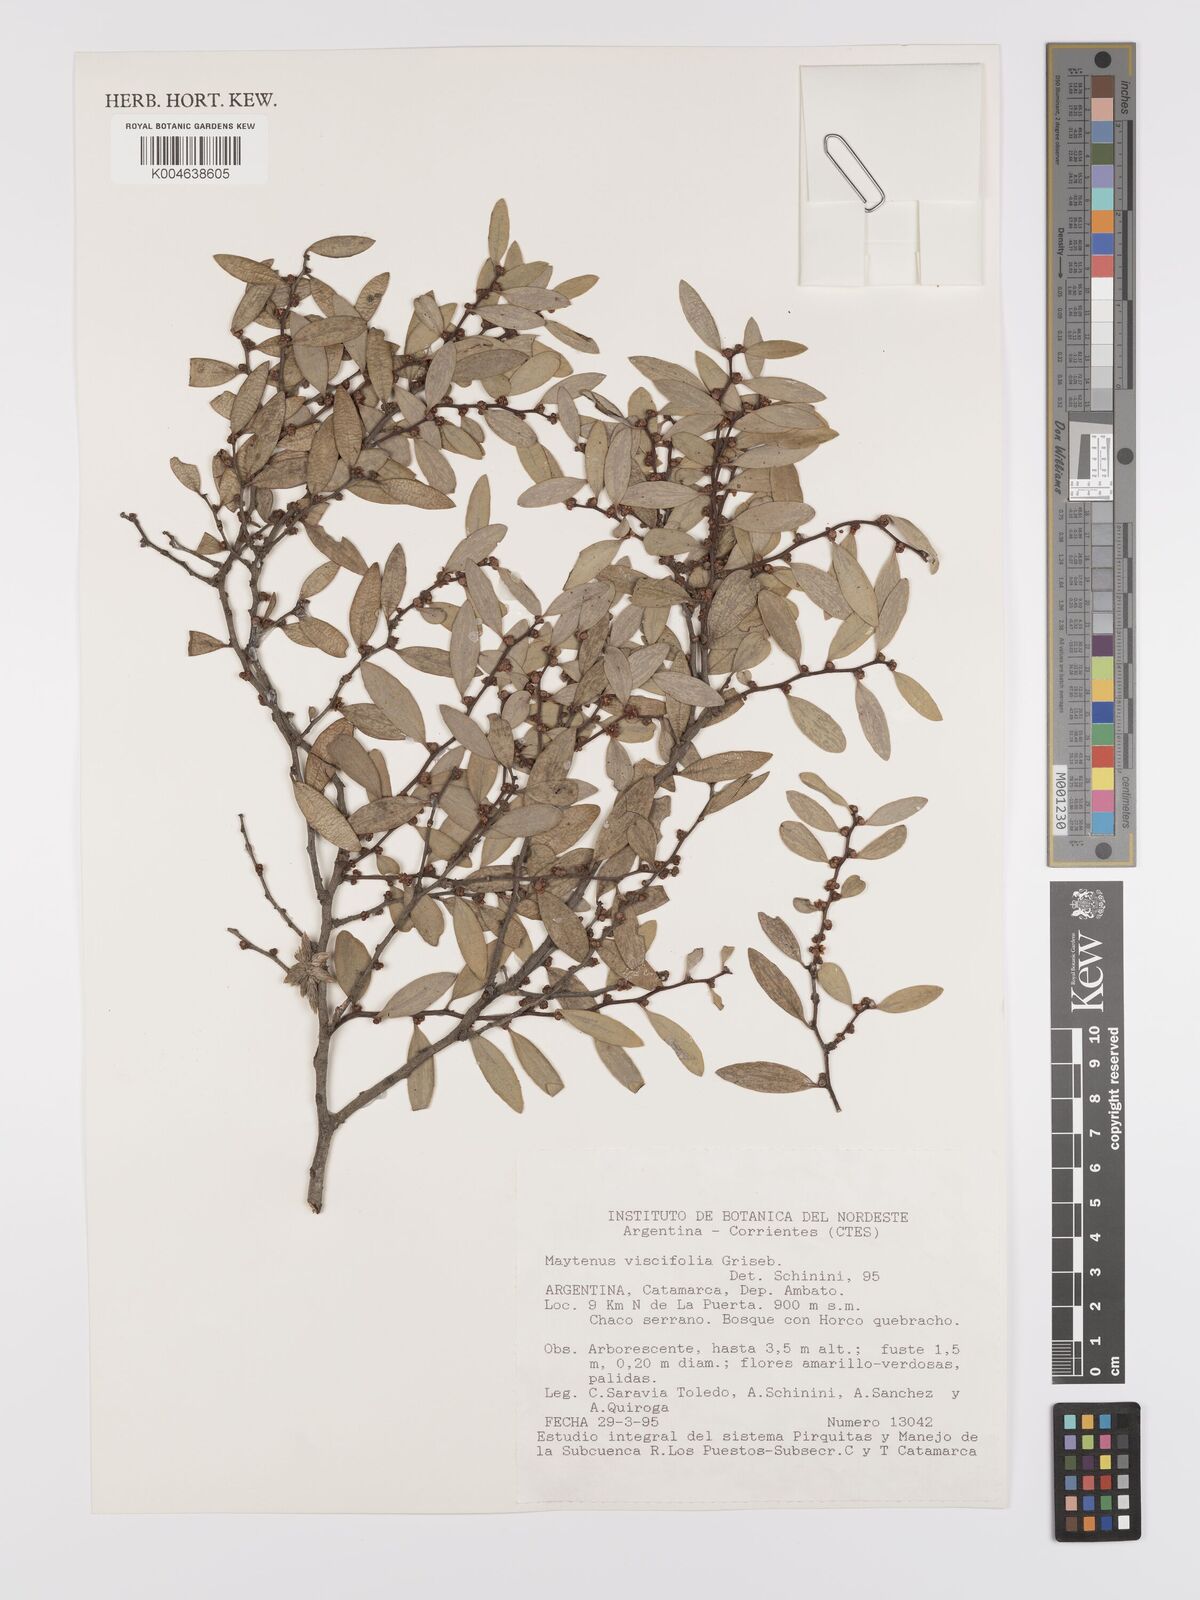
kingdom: Plantae
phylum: Tracheophyta
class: Magnoliopsida
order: Celastrales
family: Celastraceae
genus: Tricerma
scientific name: Tricerma viscifolium
